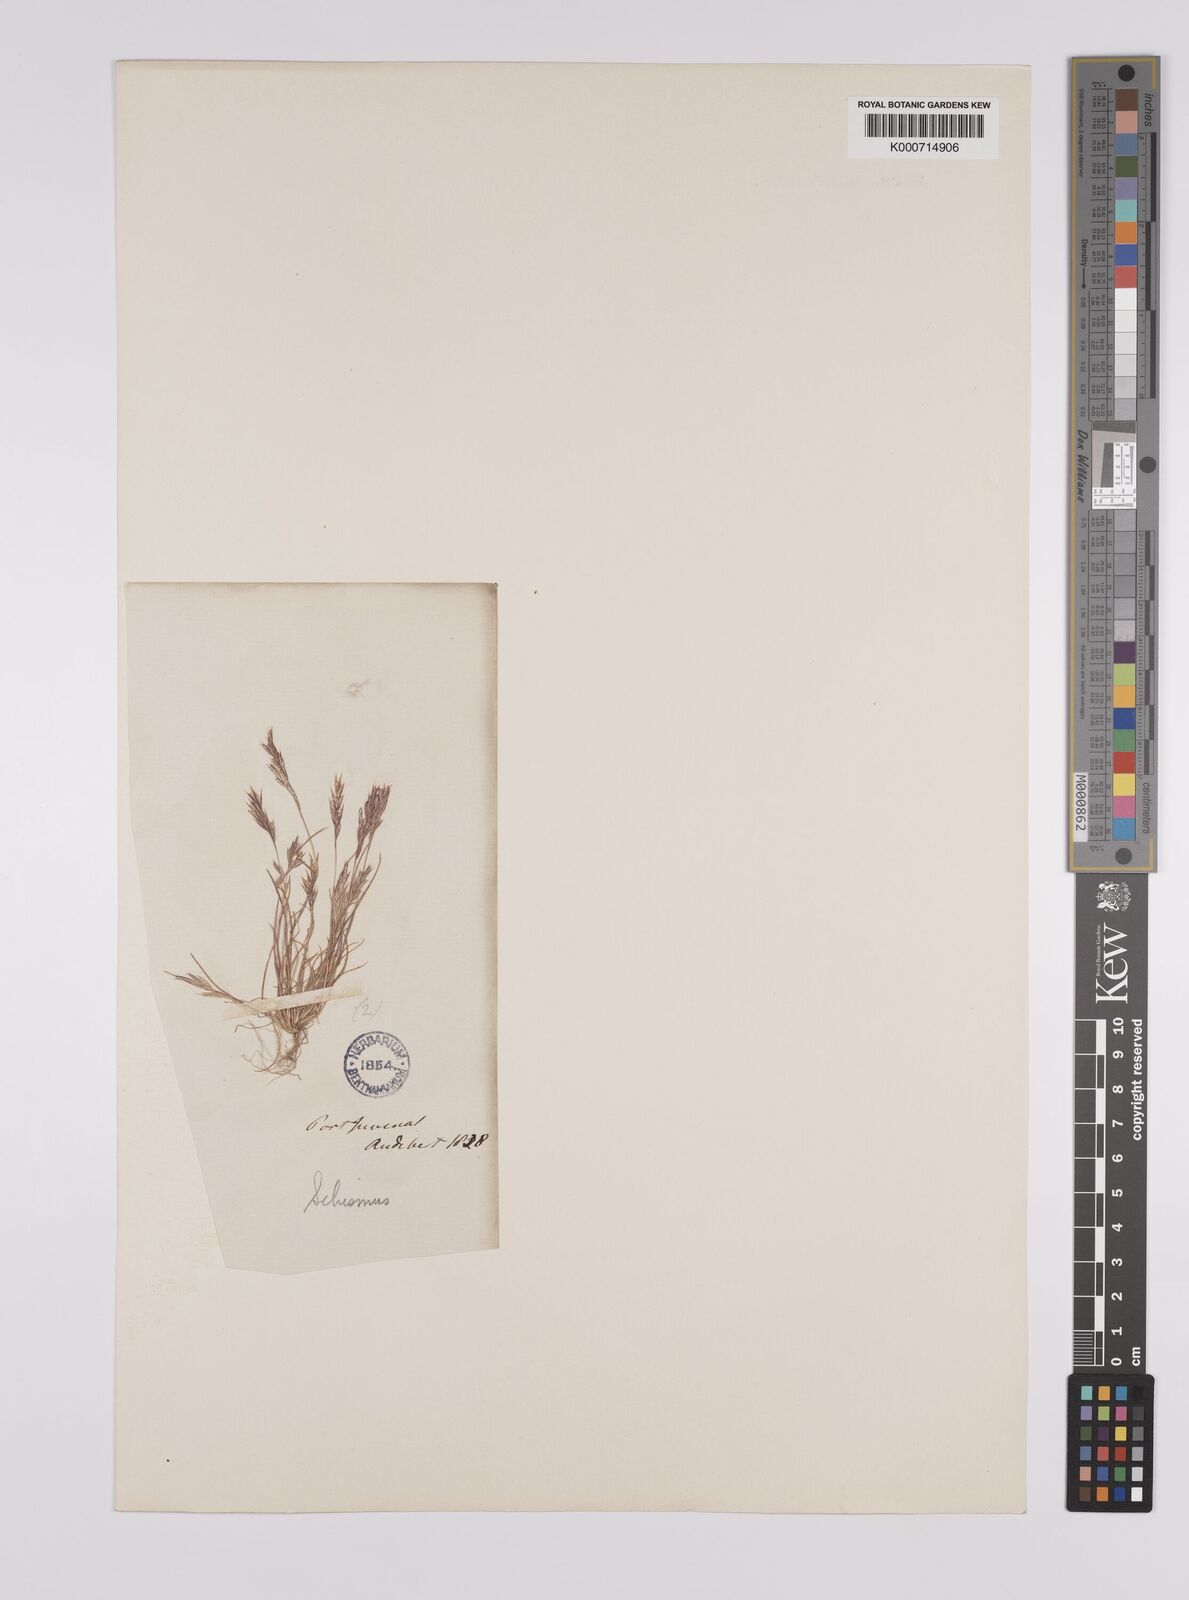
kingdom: Plantae
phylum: Tracheophyta
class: Liliopsida
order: Poales
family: Poaceae
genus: Schismus
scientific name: Schismus barbatus
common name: Kelch-grass
